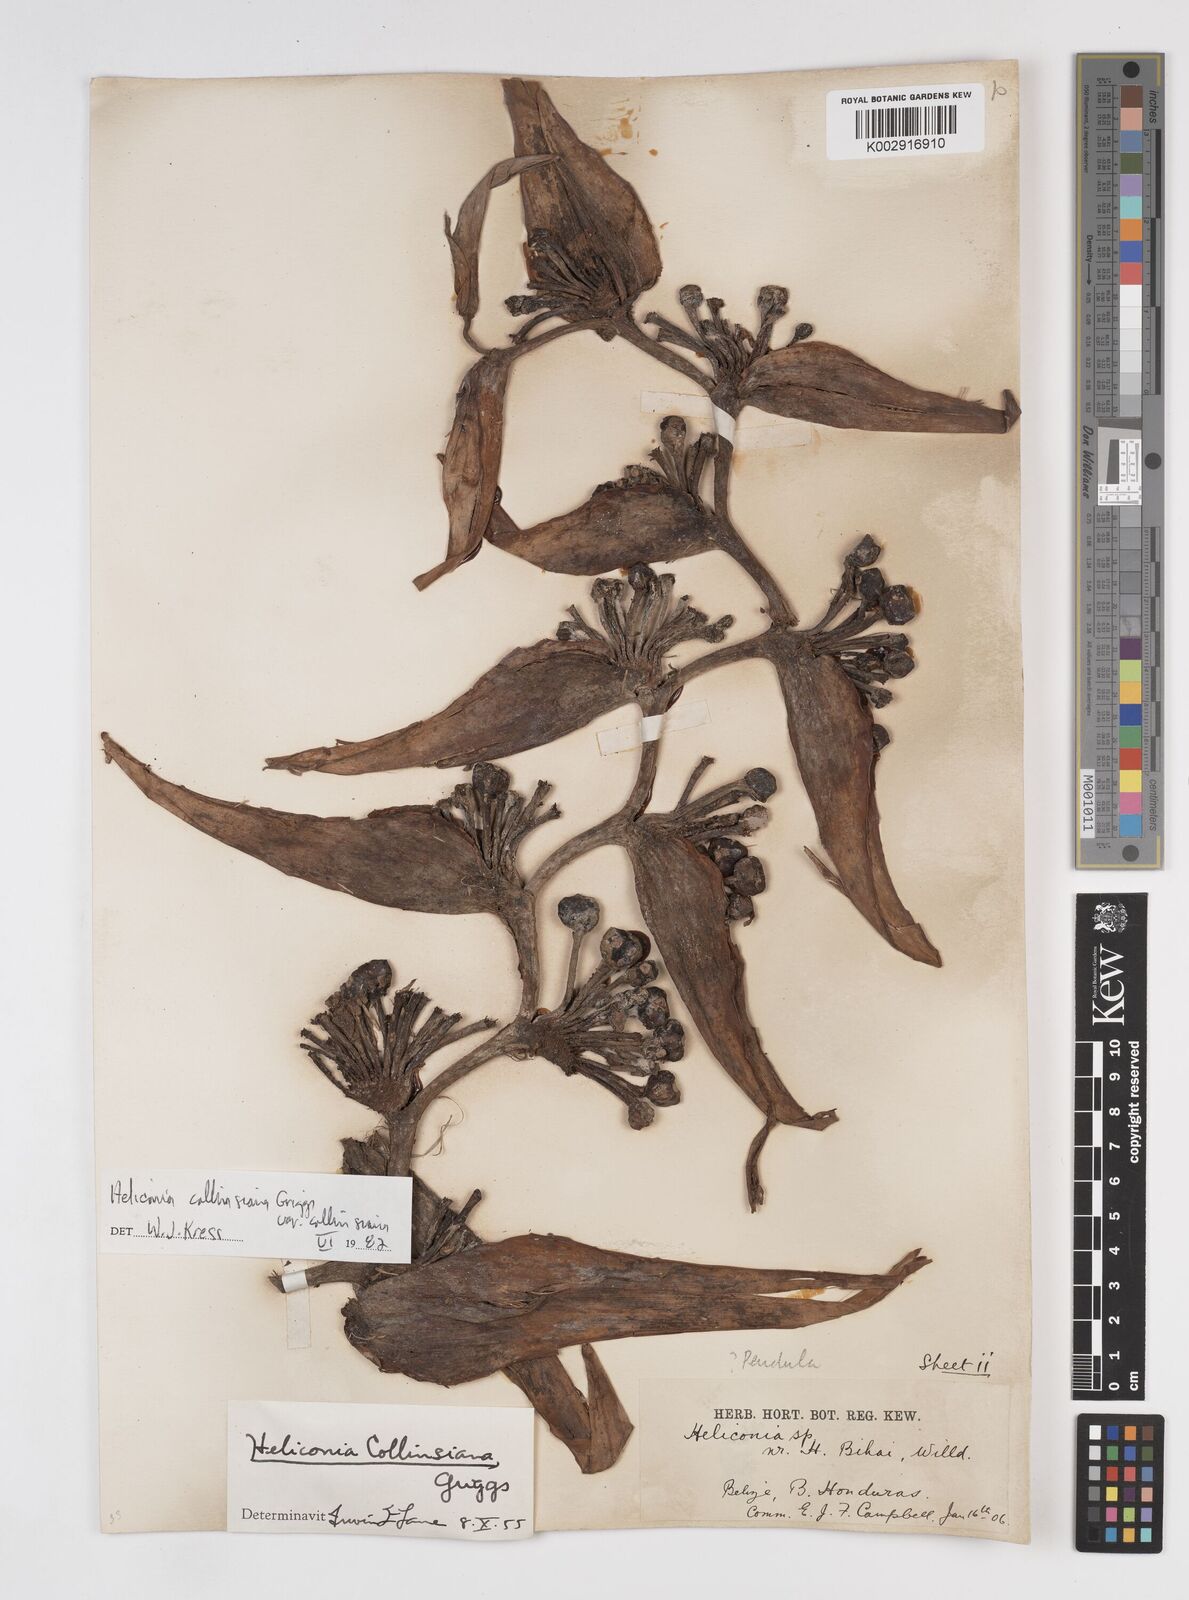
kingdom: Plantae
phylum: Tracheophyta
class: Liliopsida
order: Zingiberales
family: Heliconiaceae
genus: Heliconia
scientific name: Heliconia collinsiana
